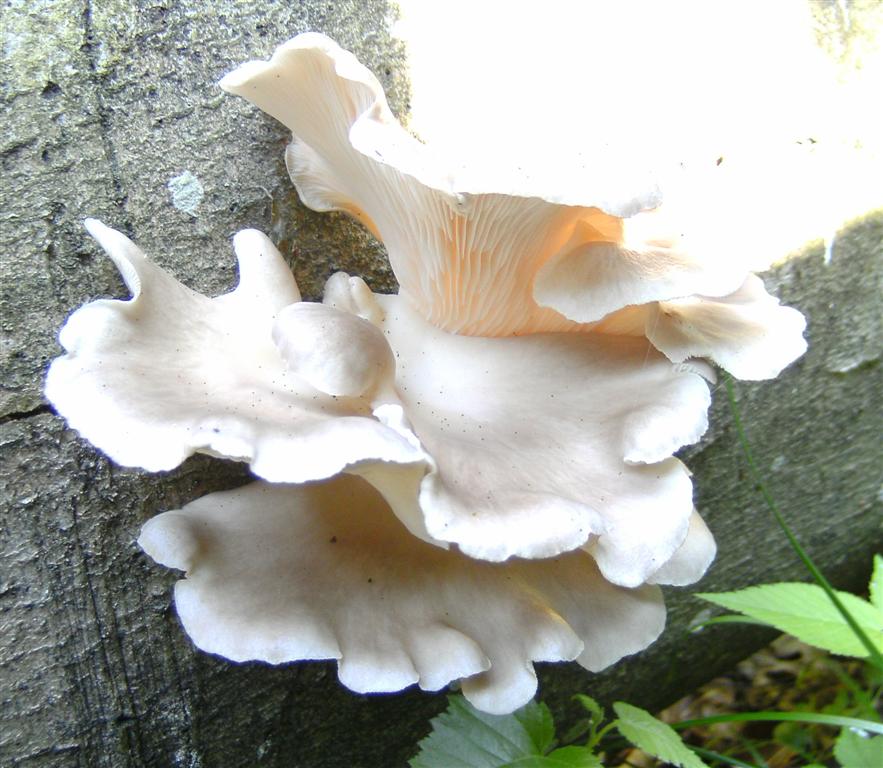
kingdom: Fungi
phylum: Basidiomycota
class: Agaricomycetes
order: Agaricales
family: Pleurotaceae
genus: Pleurotus
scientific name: Pleurotus pulmonarius
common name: sommer-østershat
